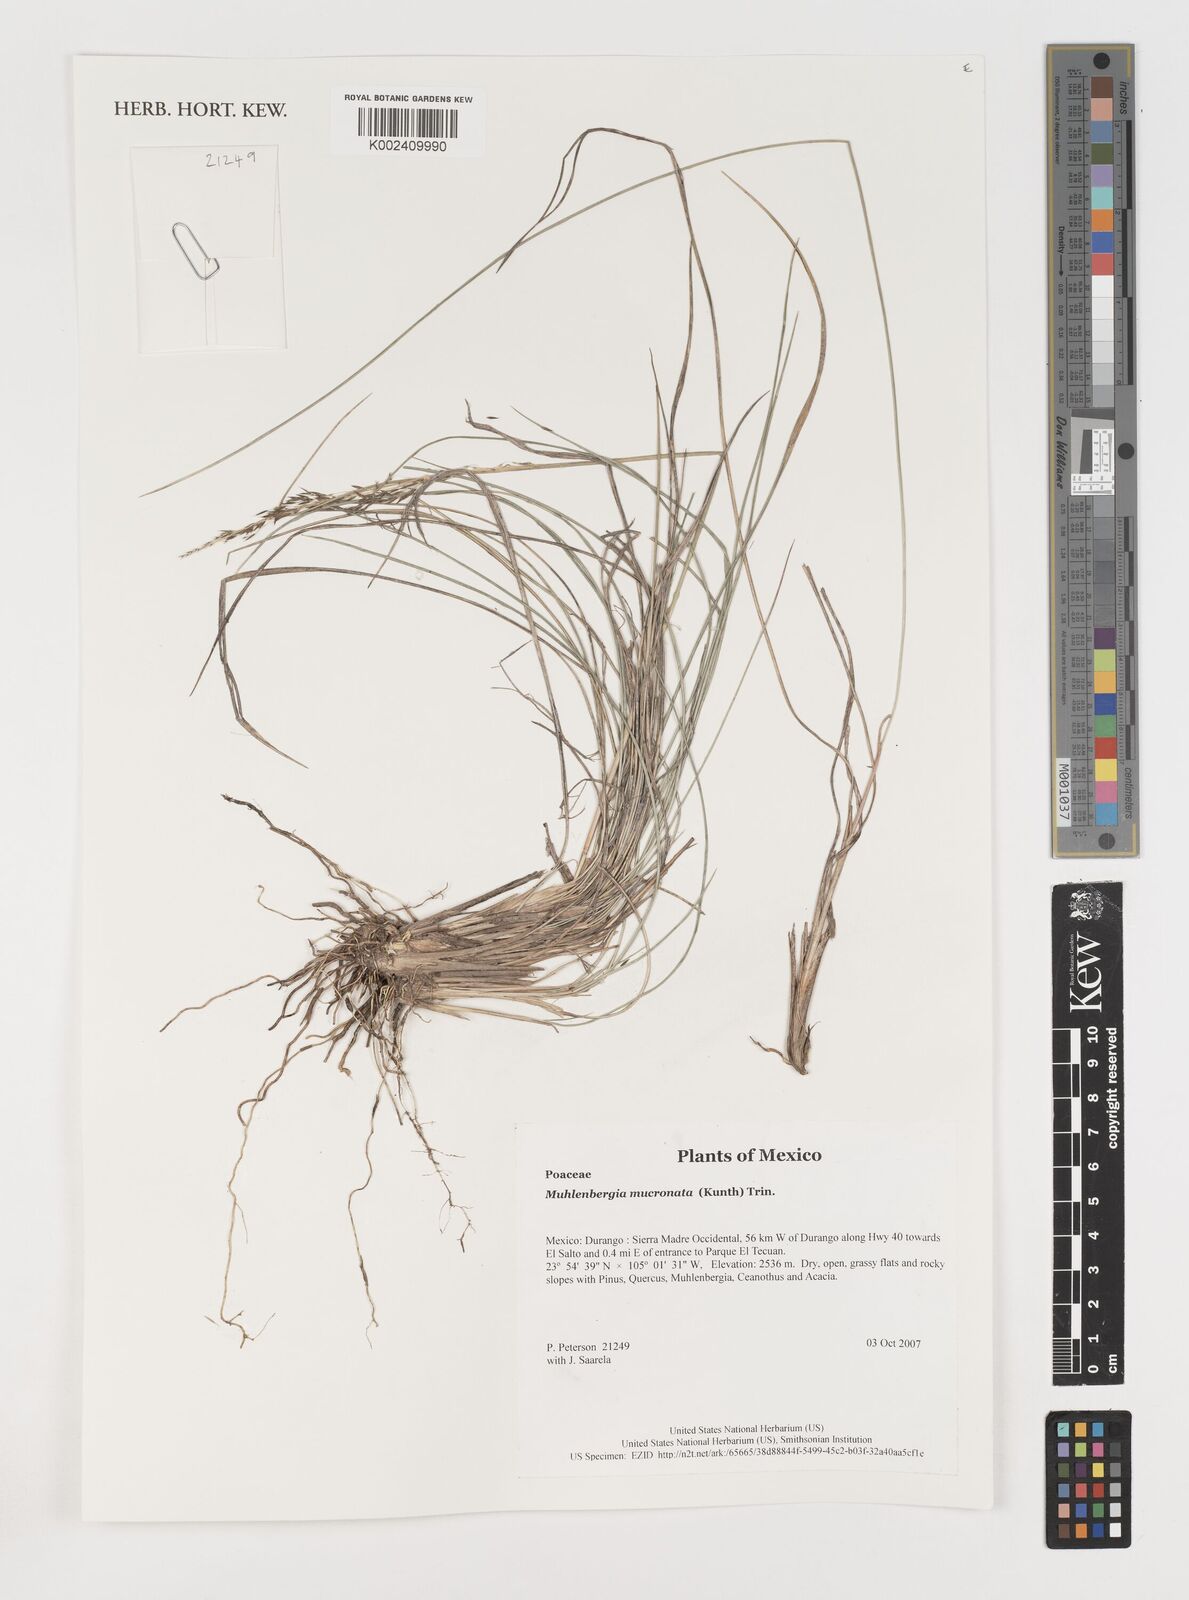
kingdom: Plantae
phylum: Tracheophyta
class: Liliopsida
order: Poales
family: Poaceae
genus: Muhlenbergia
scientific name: Muhlenbergia mucronata
